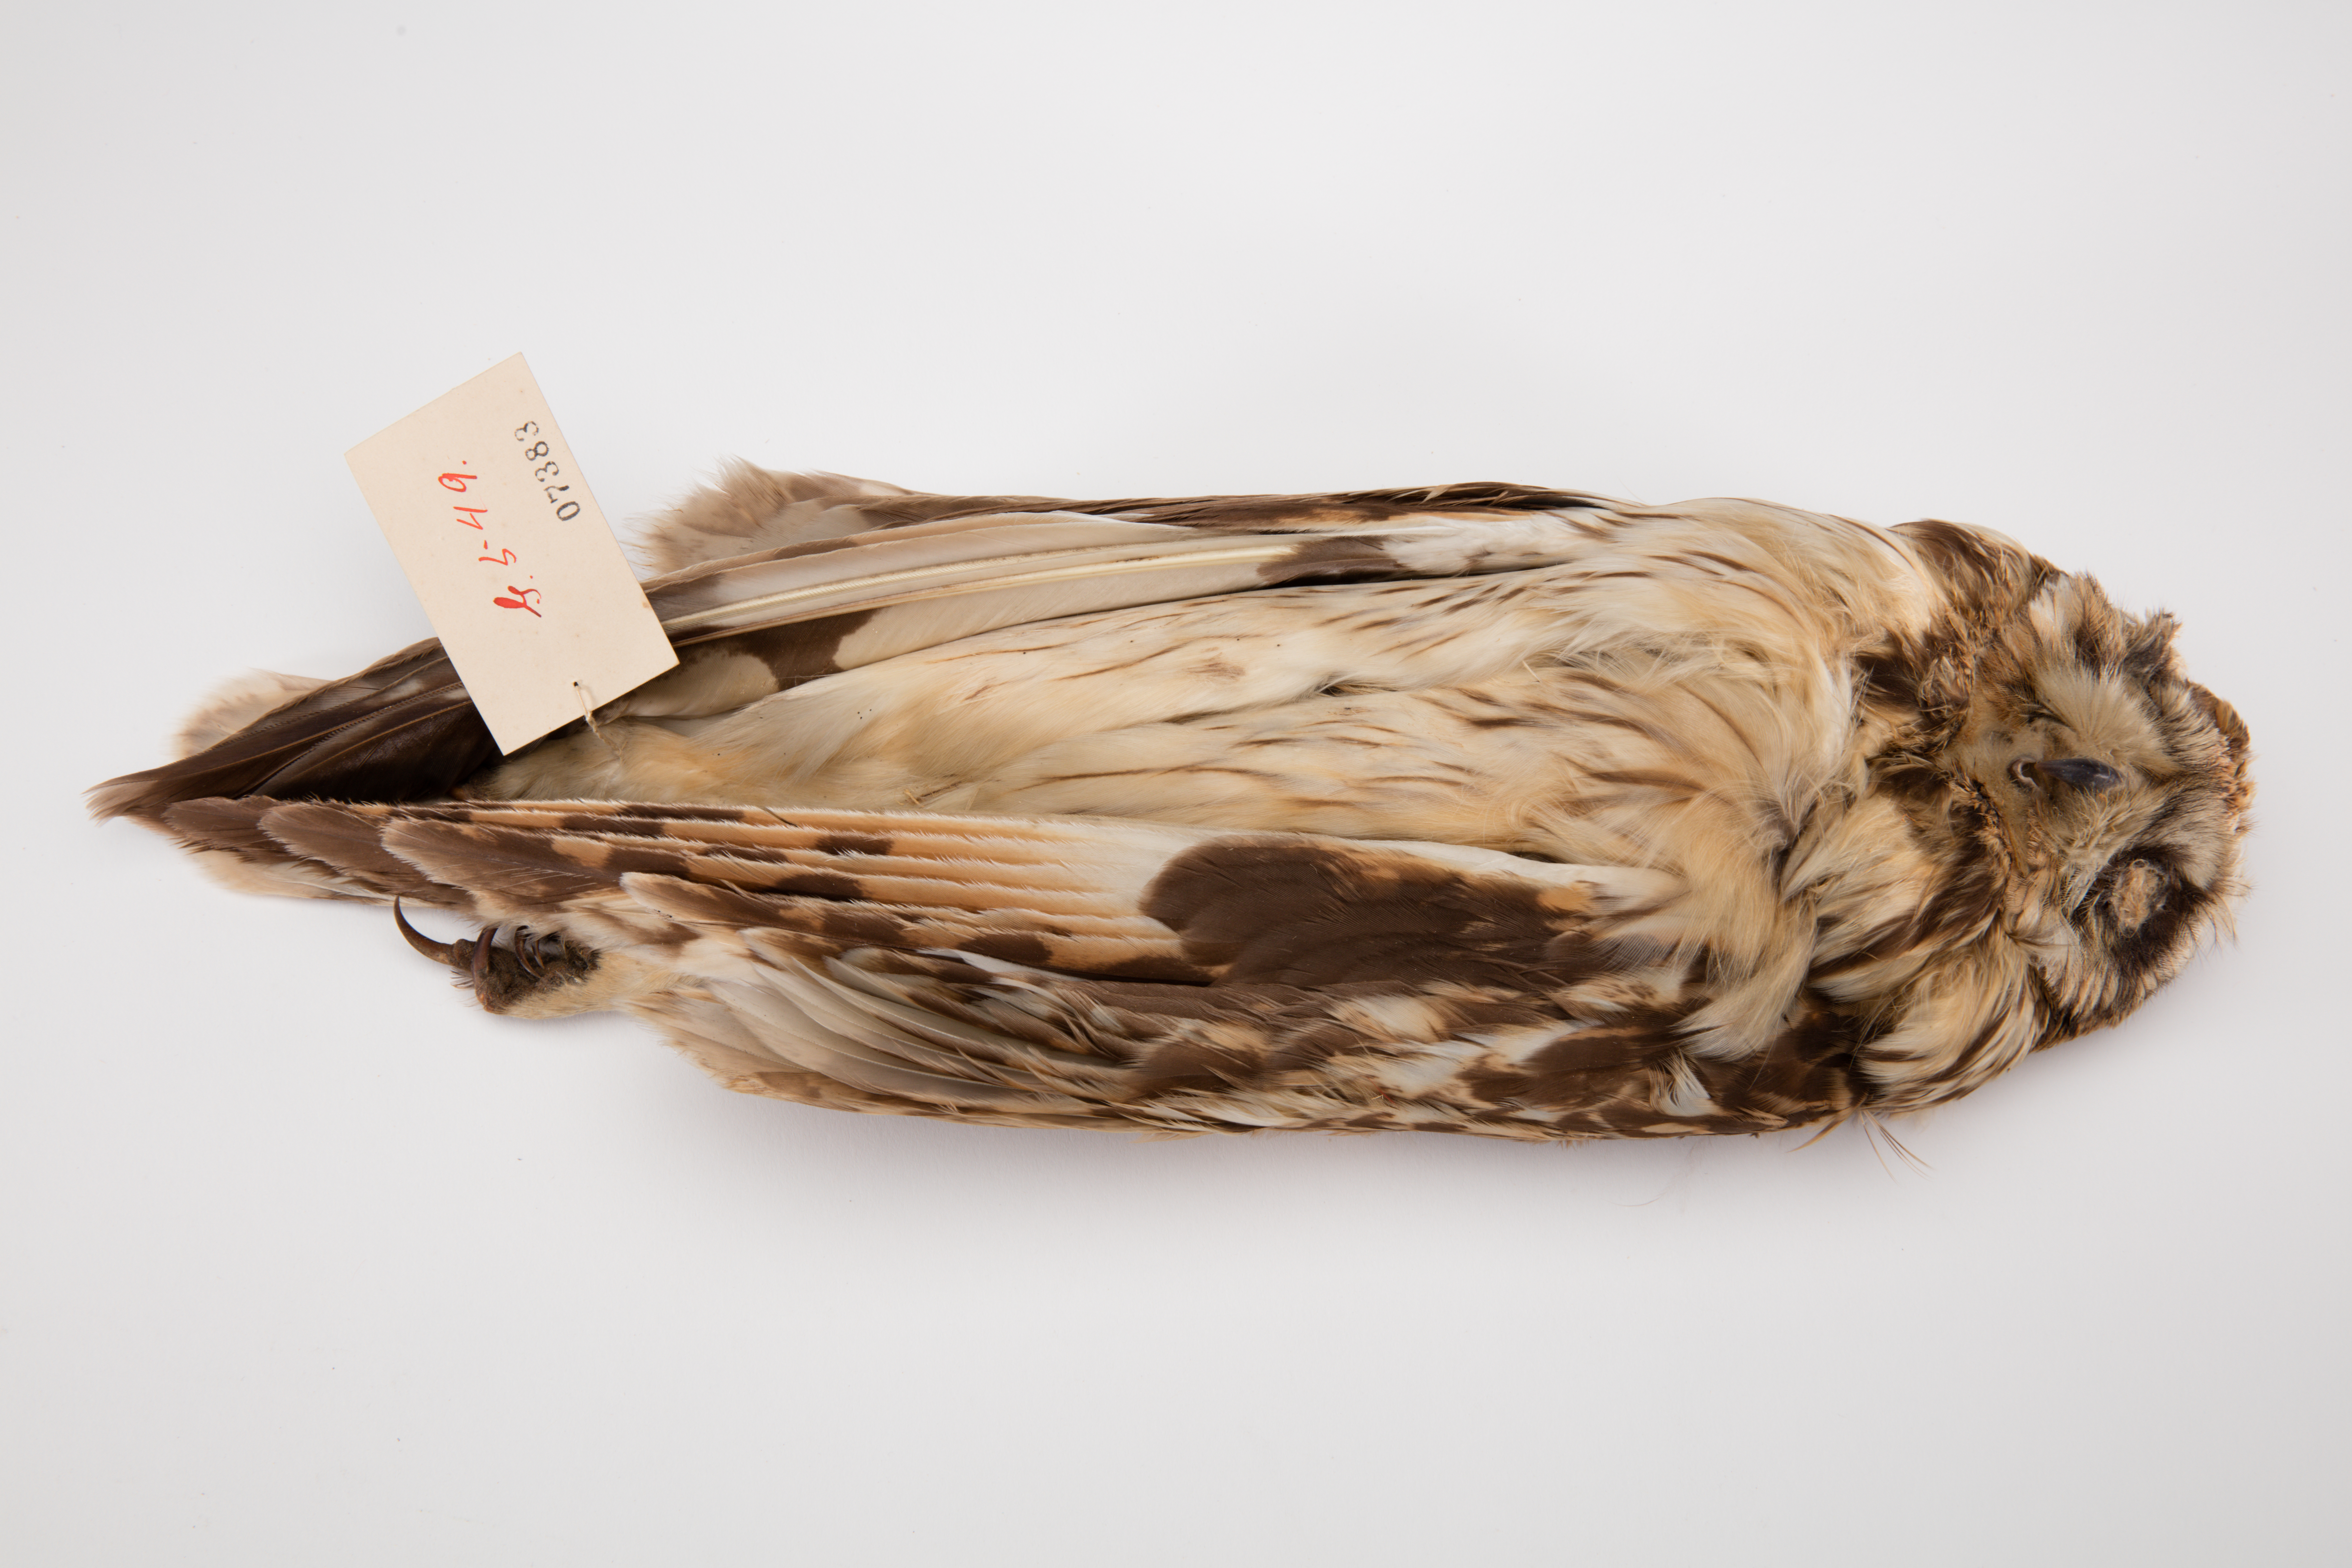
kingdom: Animalia
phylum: Chordata
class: Aves
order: Strigiformes
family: Strigidae
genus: Asio
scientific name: Asio flammeus
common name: Short-eared owl
